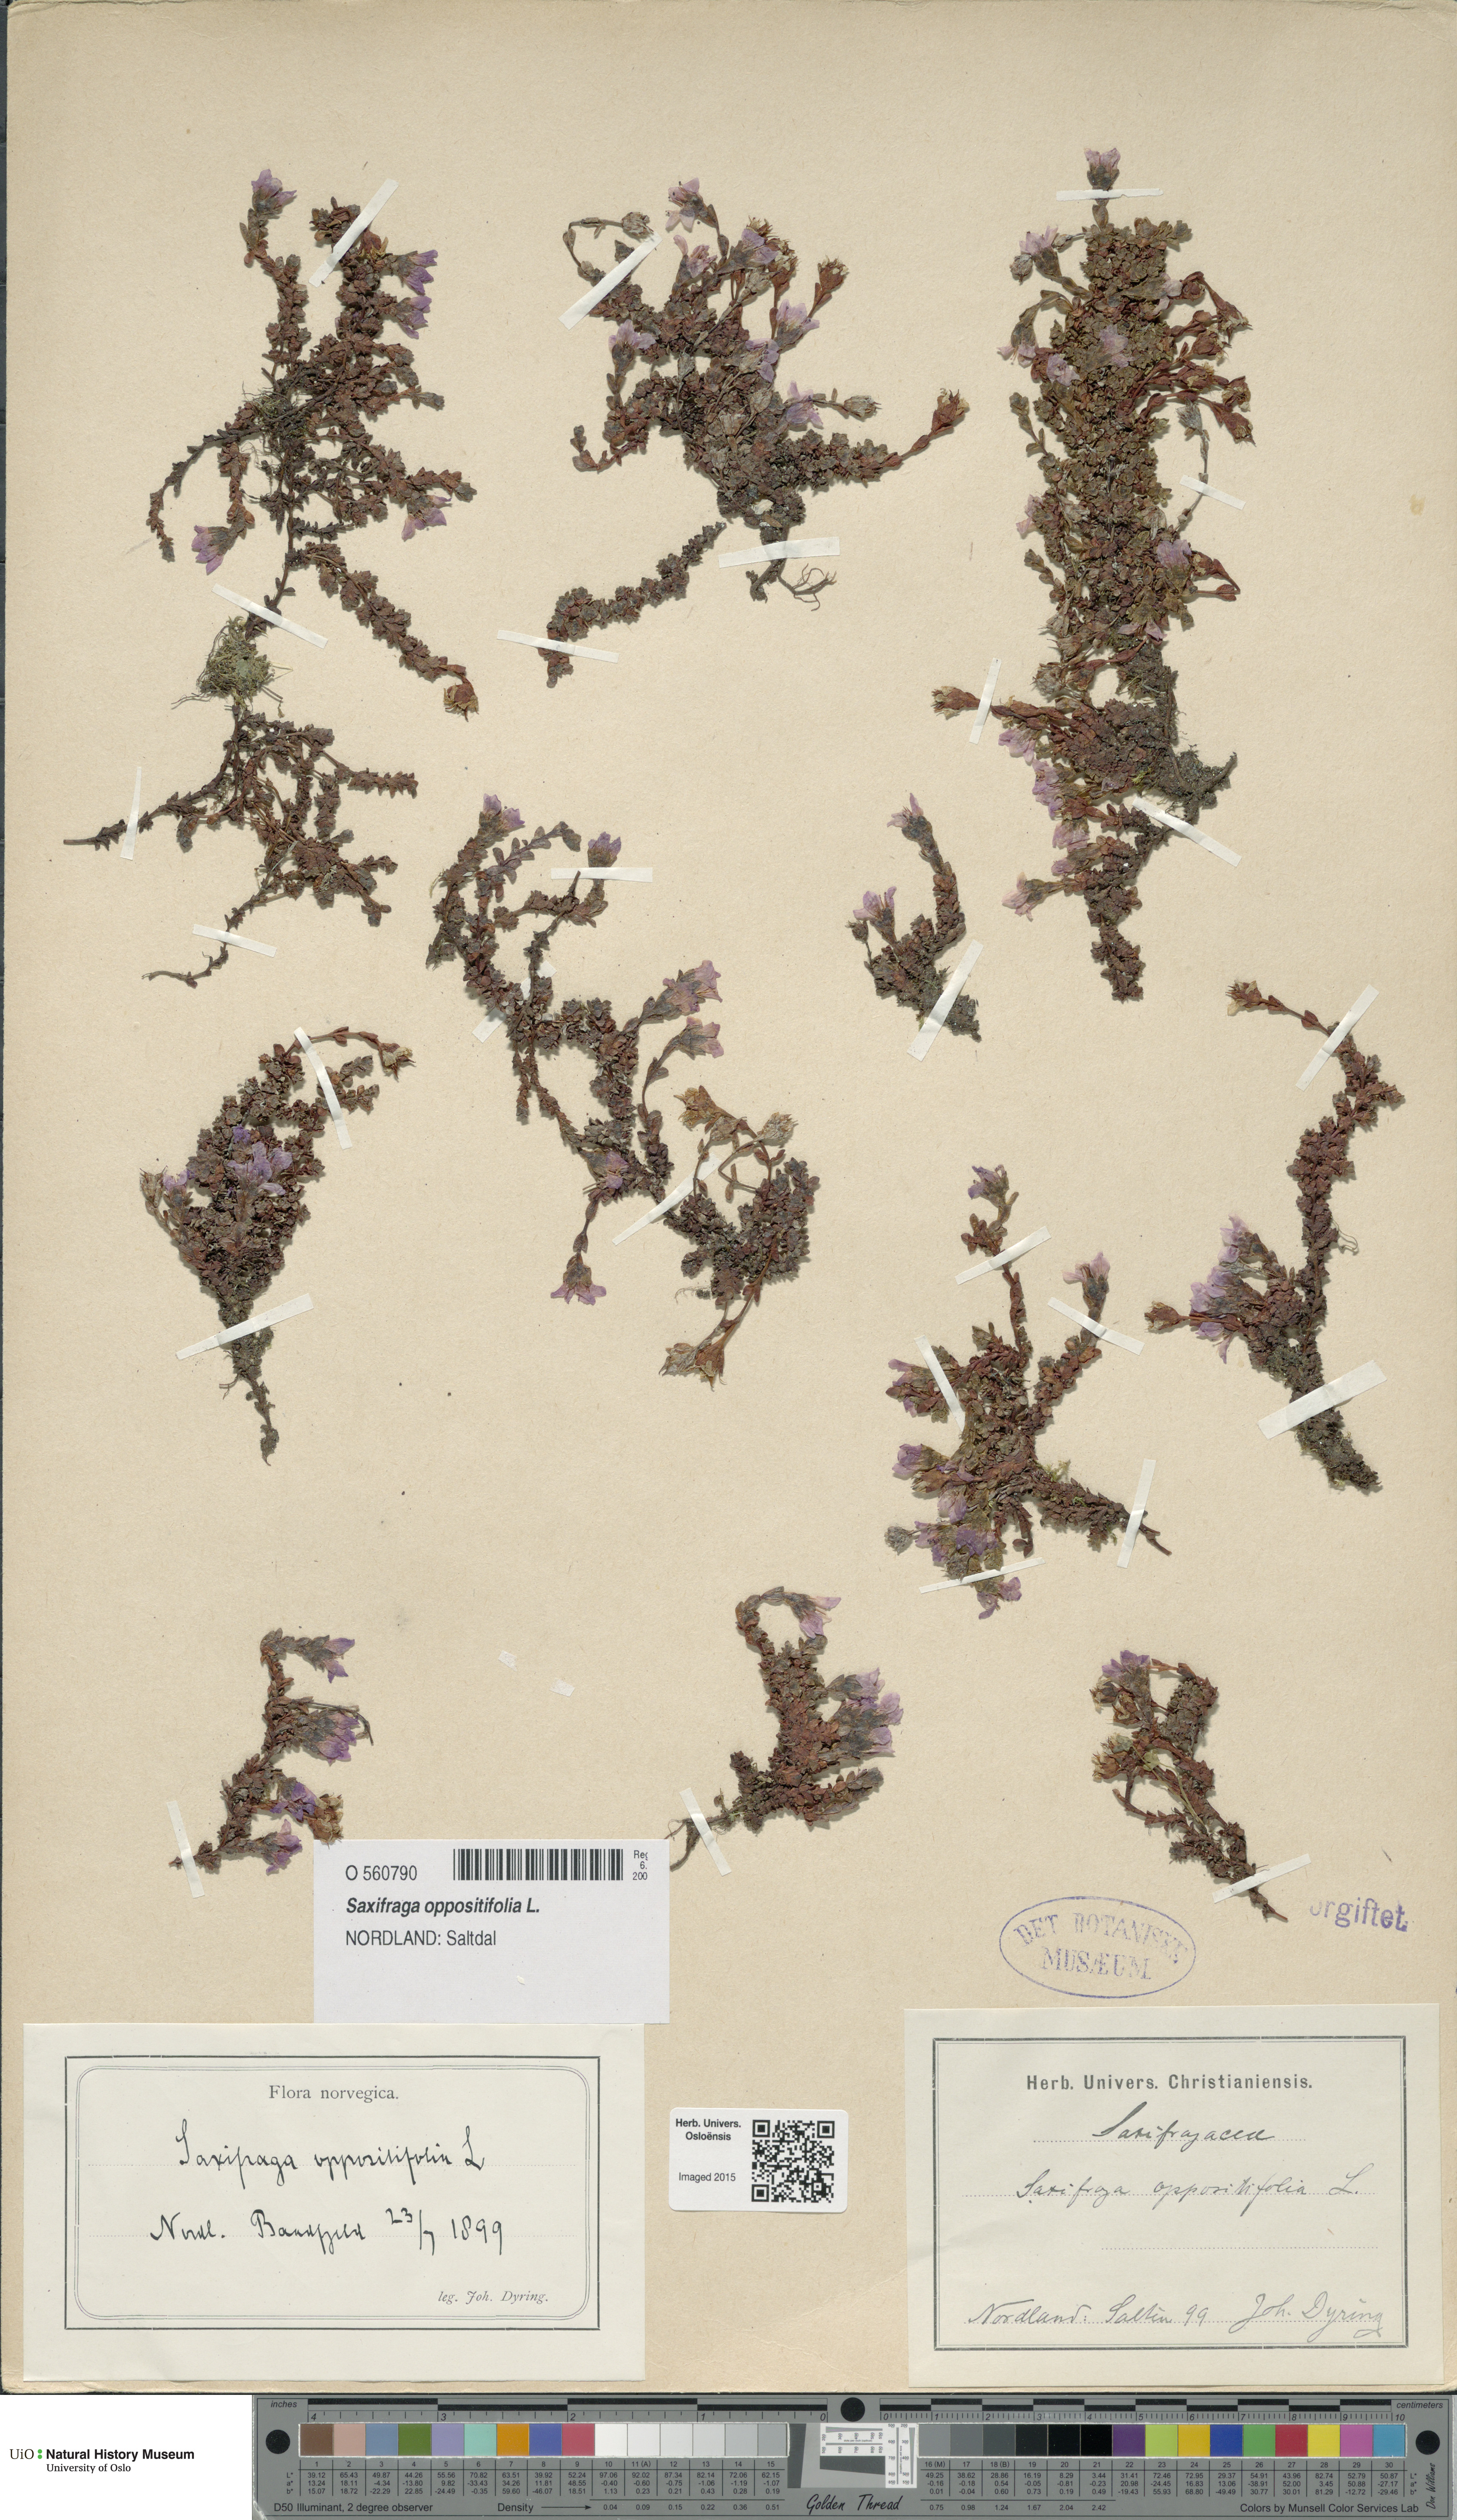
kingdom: Plantae
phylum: Tracheophyta
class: Magnoliopsida
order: Saxifragales
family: Saxifragaceae
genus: Saxifraga
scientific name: Saxifraga oppositifolia
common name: Purple saxifrage
